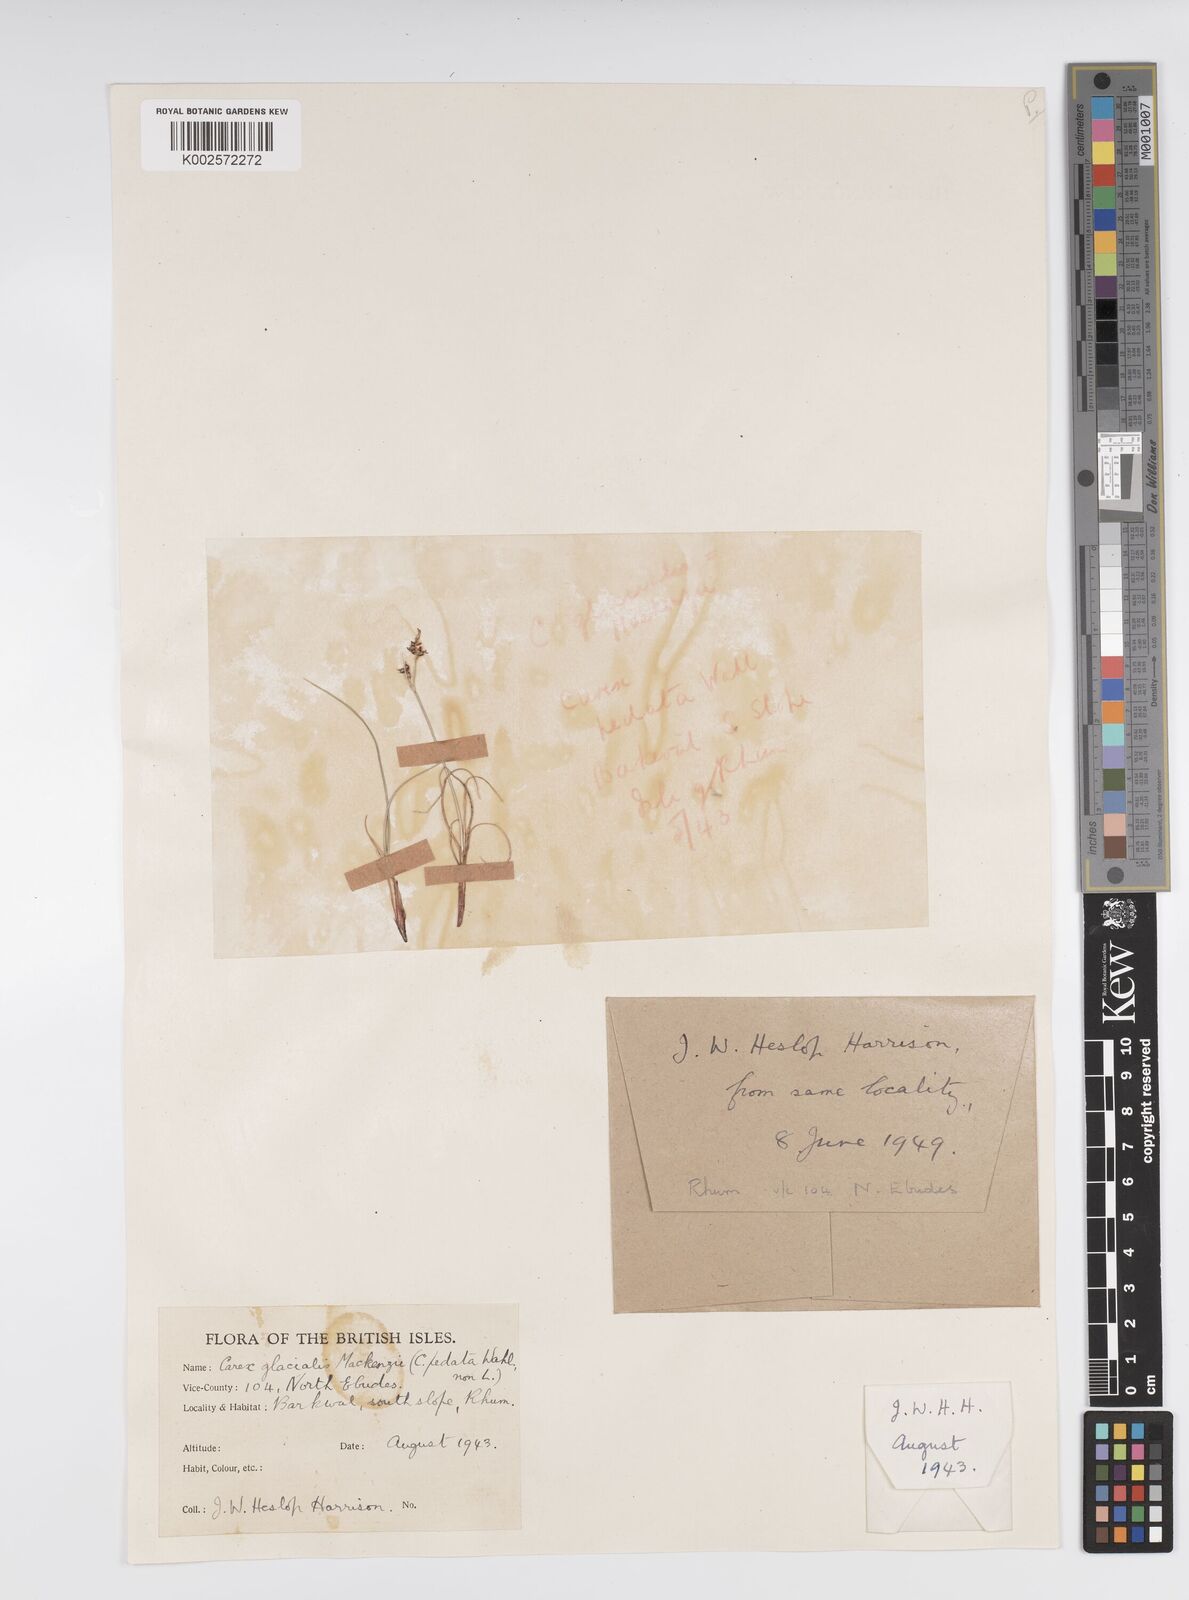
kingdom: Plantae
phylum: Tracheophyta
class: Liliopsida
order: Poales
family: Cyperaceae
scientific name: Cyperaceae
